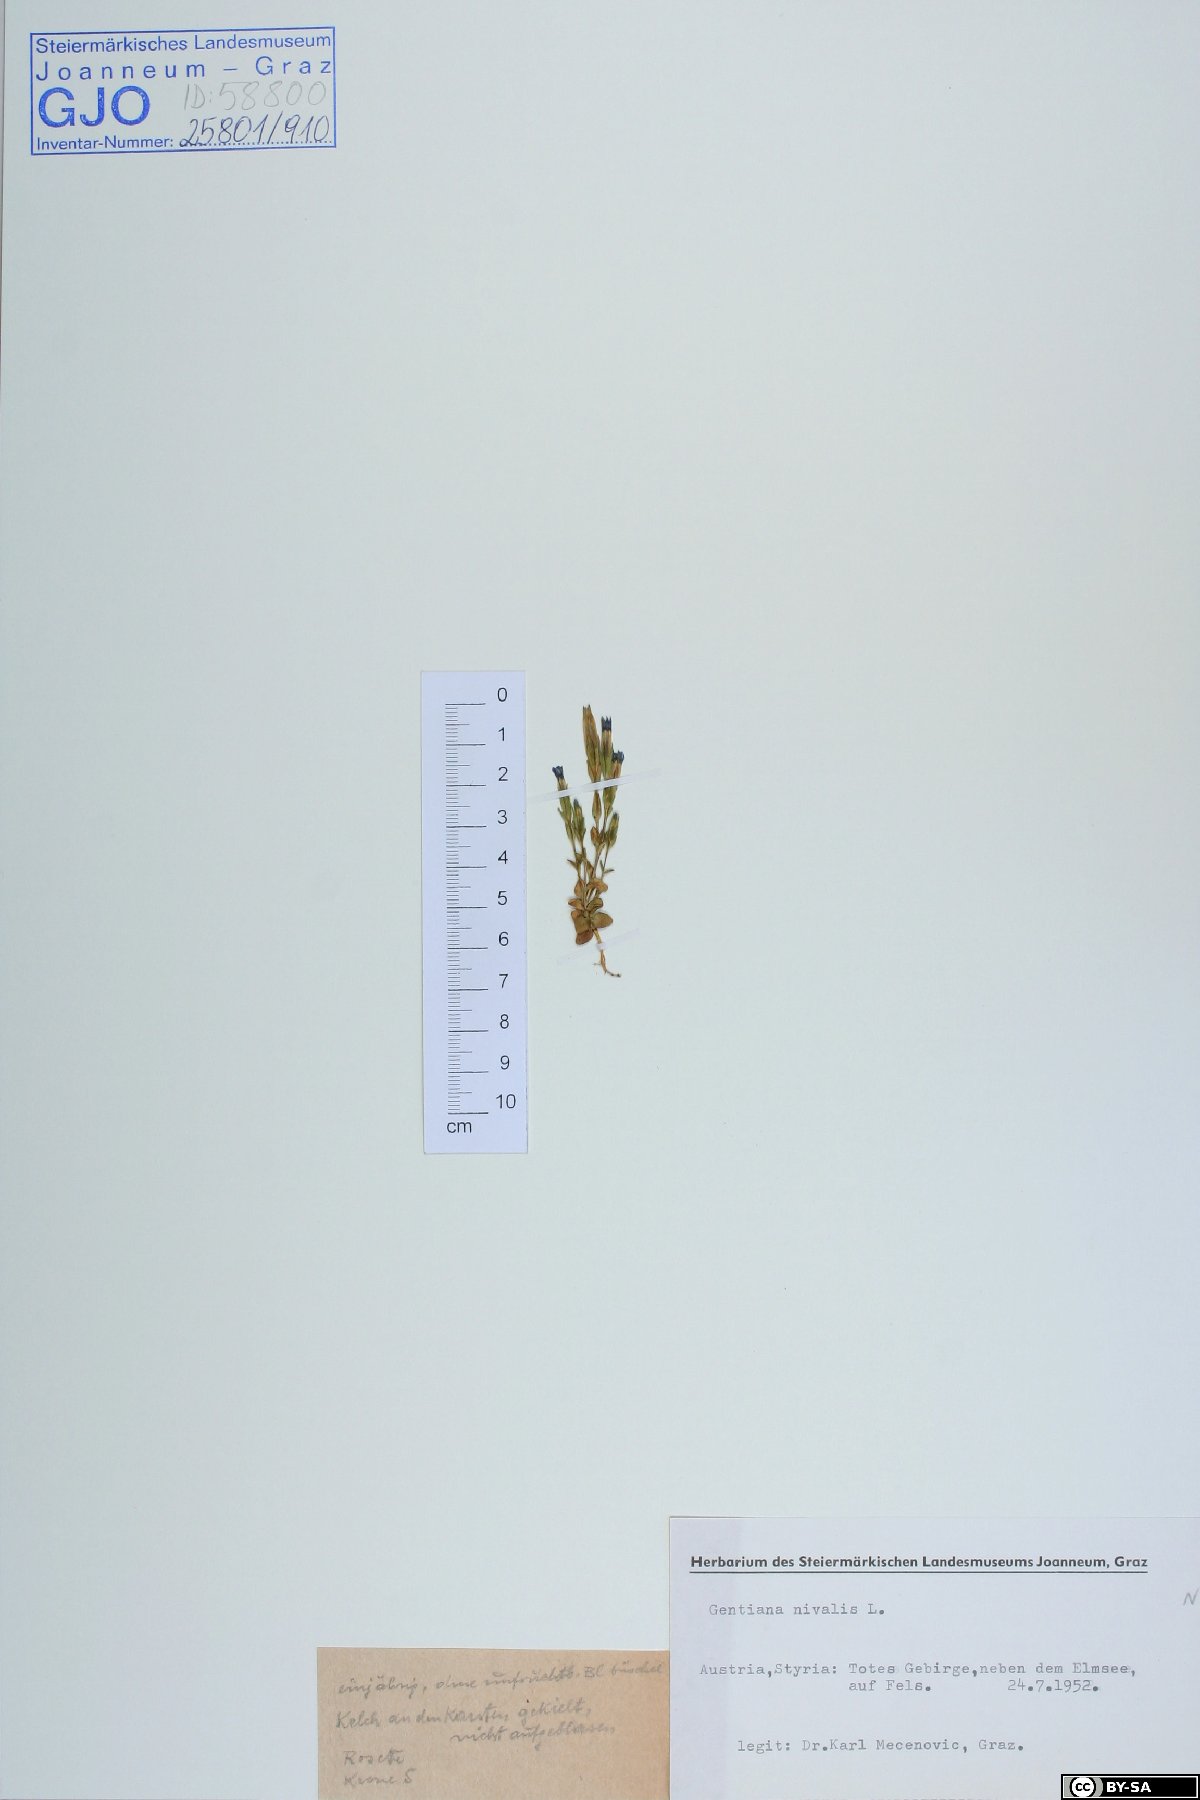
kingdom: Plantae
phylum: Tracheophyta
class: Magnoliopsida
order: Gentianales
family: Gentianaceae
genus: Gentiana
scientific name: Gentiana nivalis
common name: Alpine gentian
